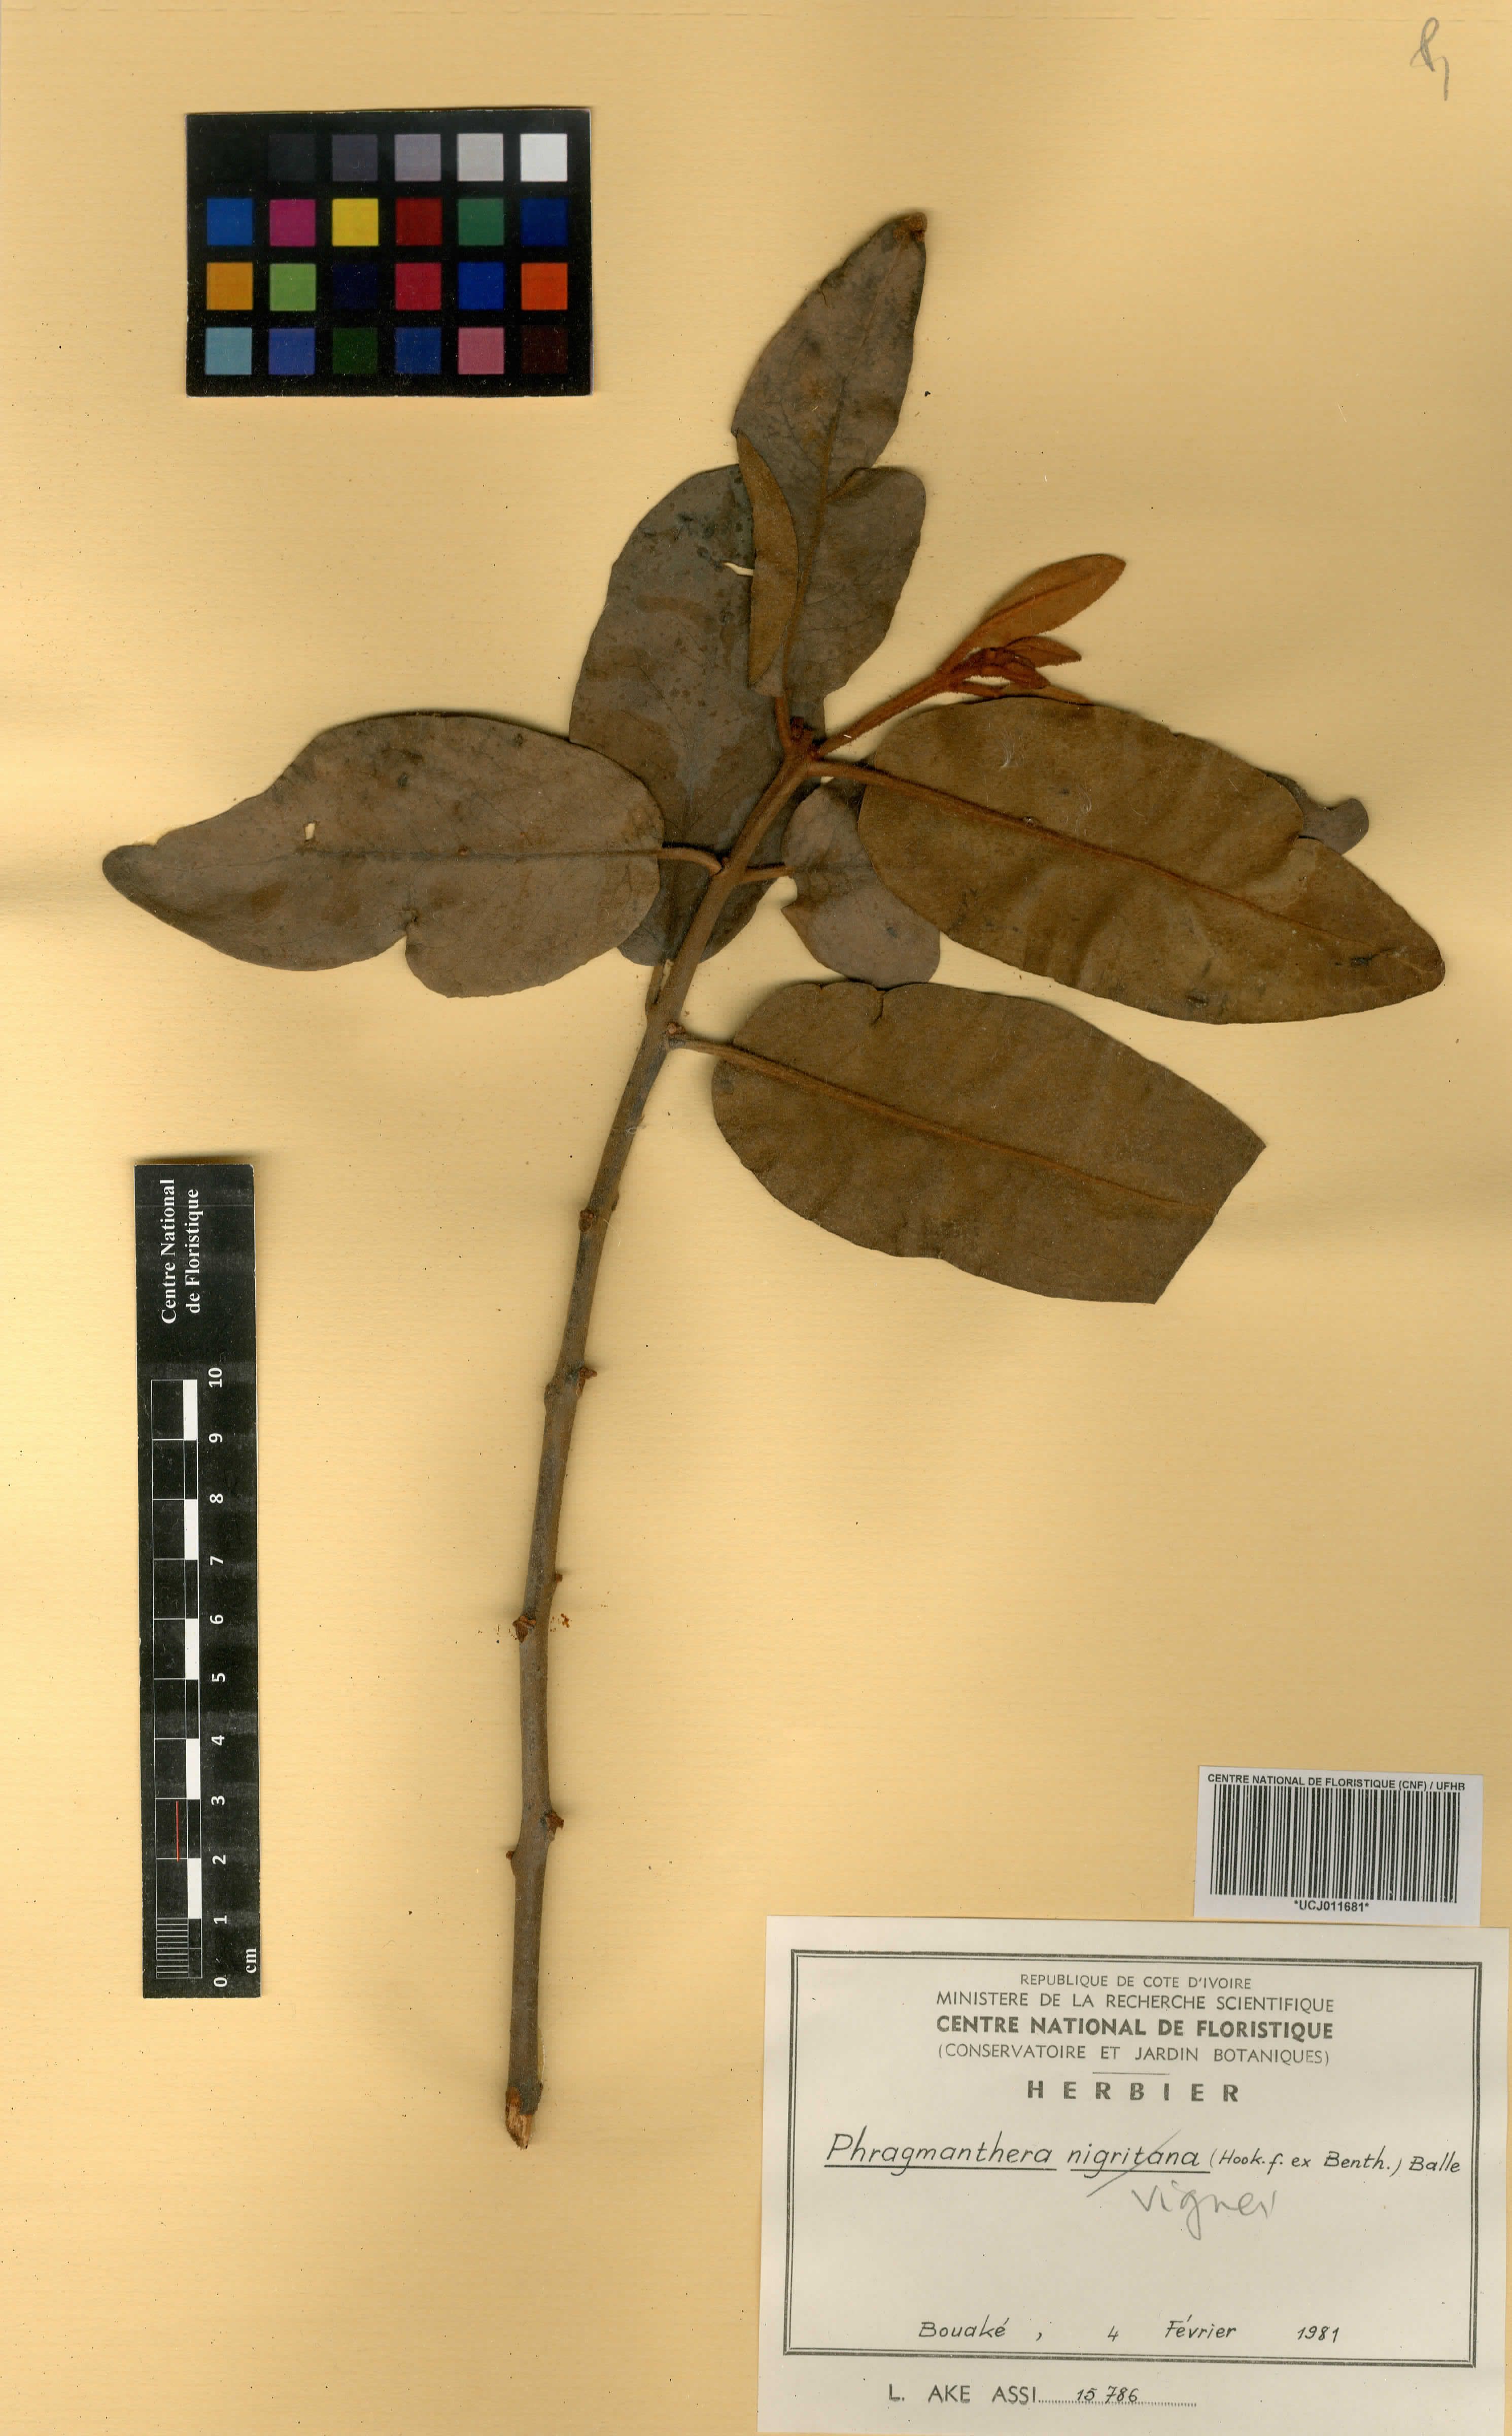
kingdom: Plantae
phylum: Tracheophyta
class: Magnoliopsida
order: Santalales
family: Loranthaceae
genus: Phragmanthera
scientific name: Phragmanthera vignei
